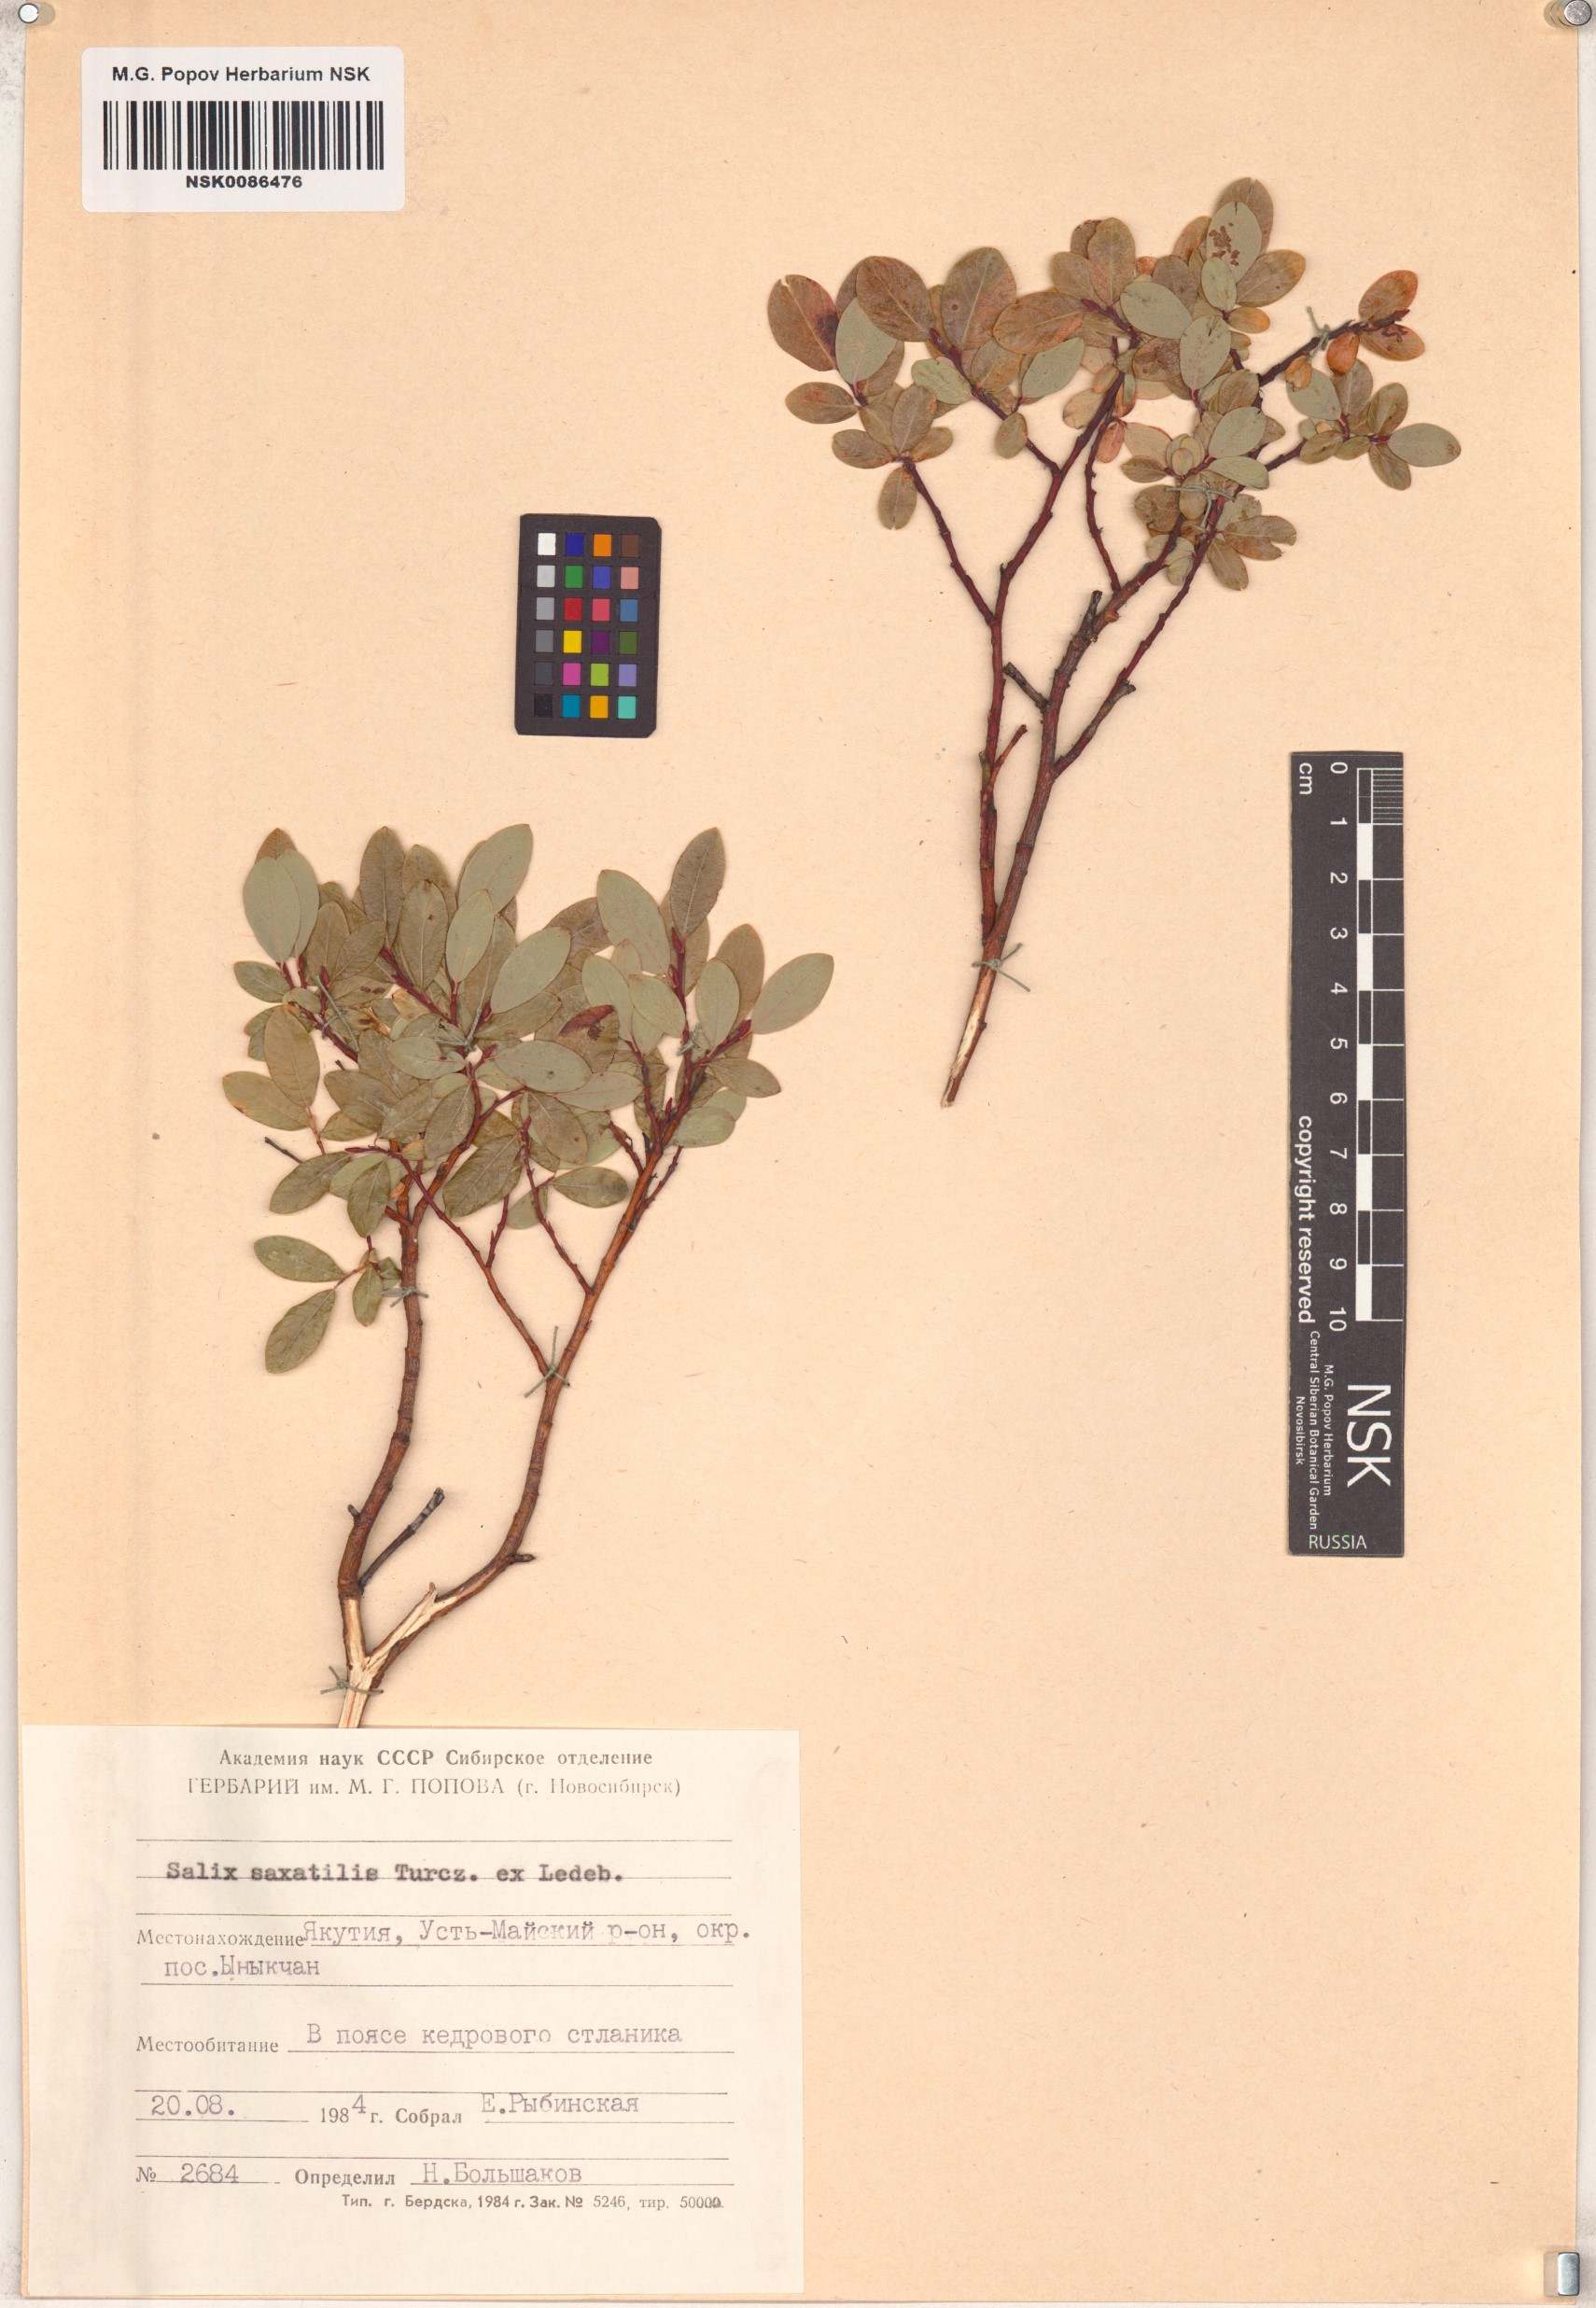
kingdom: Plantae
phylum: Tracheophyta
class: Magnoliopsida
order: Malpighiales
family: Salicaceae
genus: Salix
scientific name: Salix saxatilis
